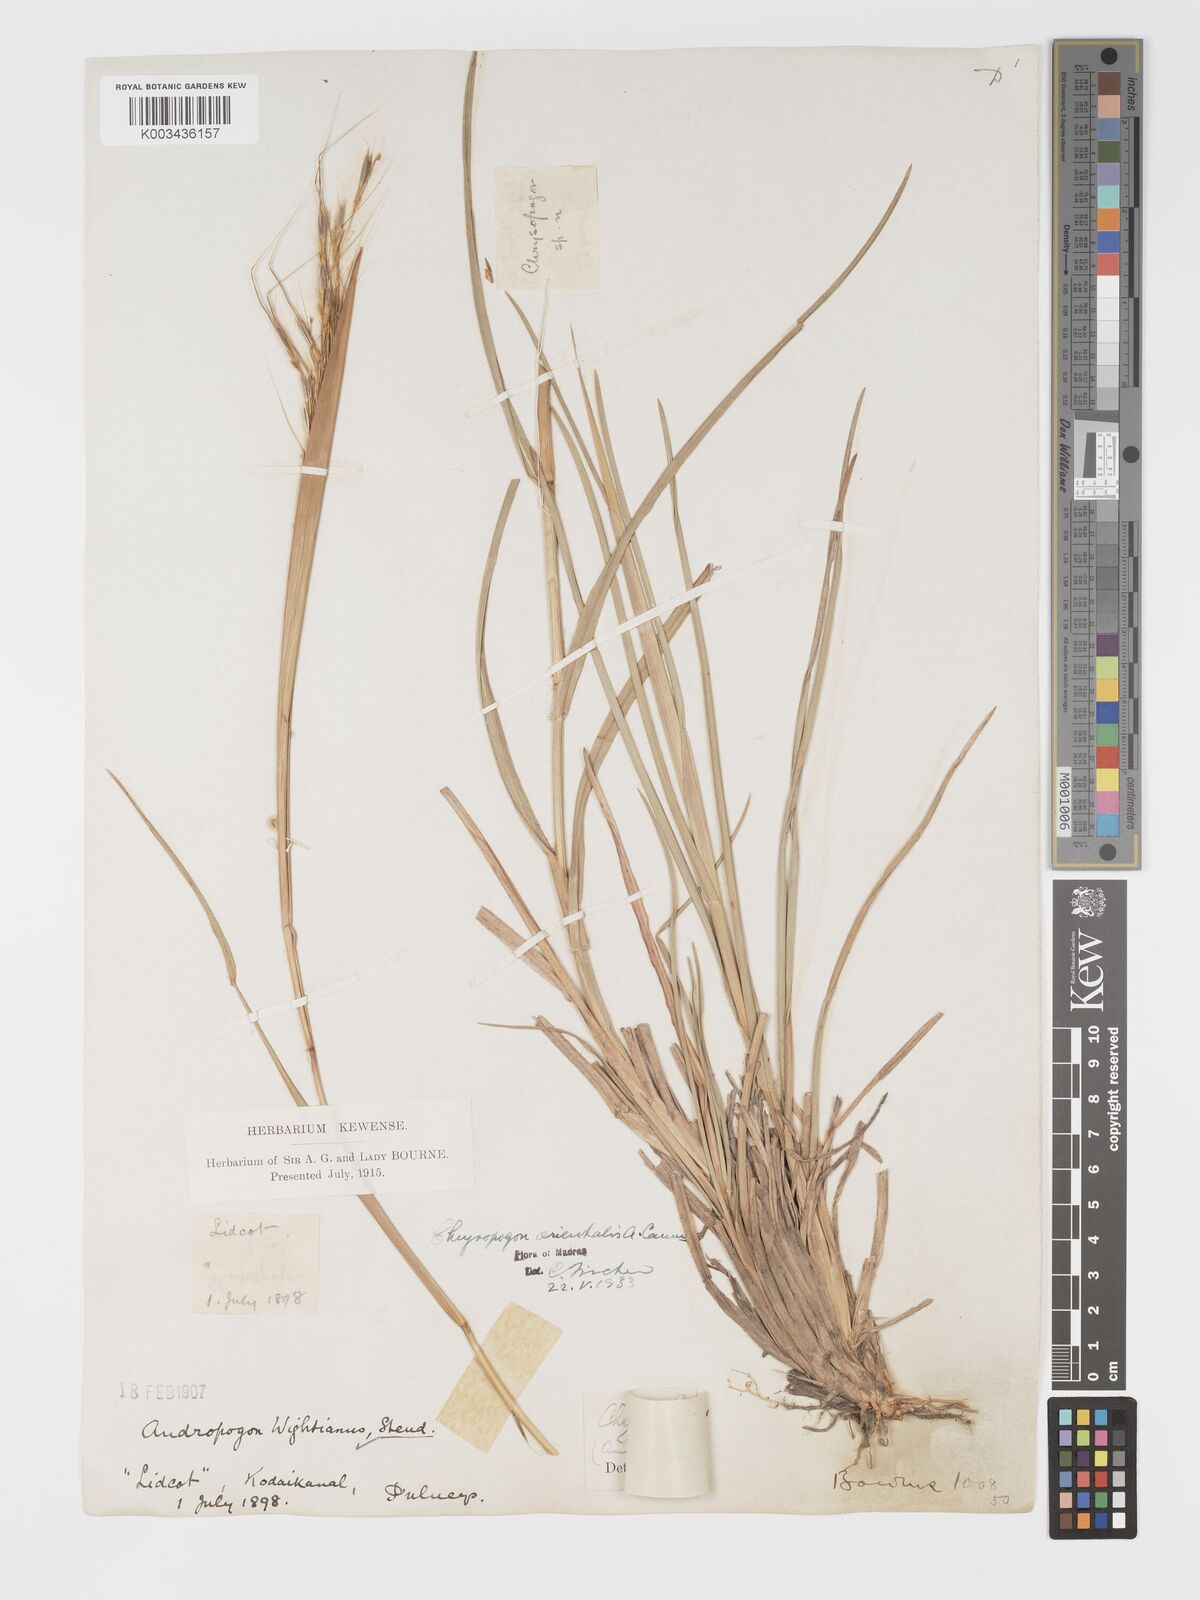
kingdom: Plantae
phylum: Tracheophyta
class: Liliopsida
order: Poales
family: Poaceae
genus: Chrysopogon
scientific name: Chrysopogon orientalis
